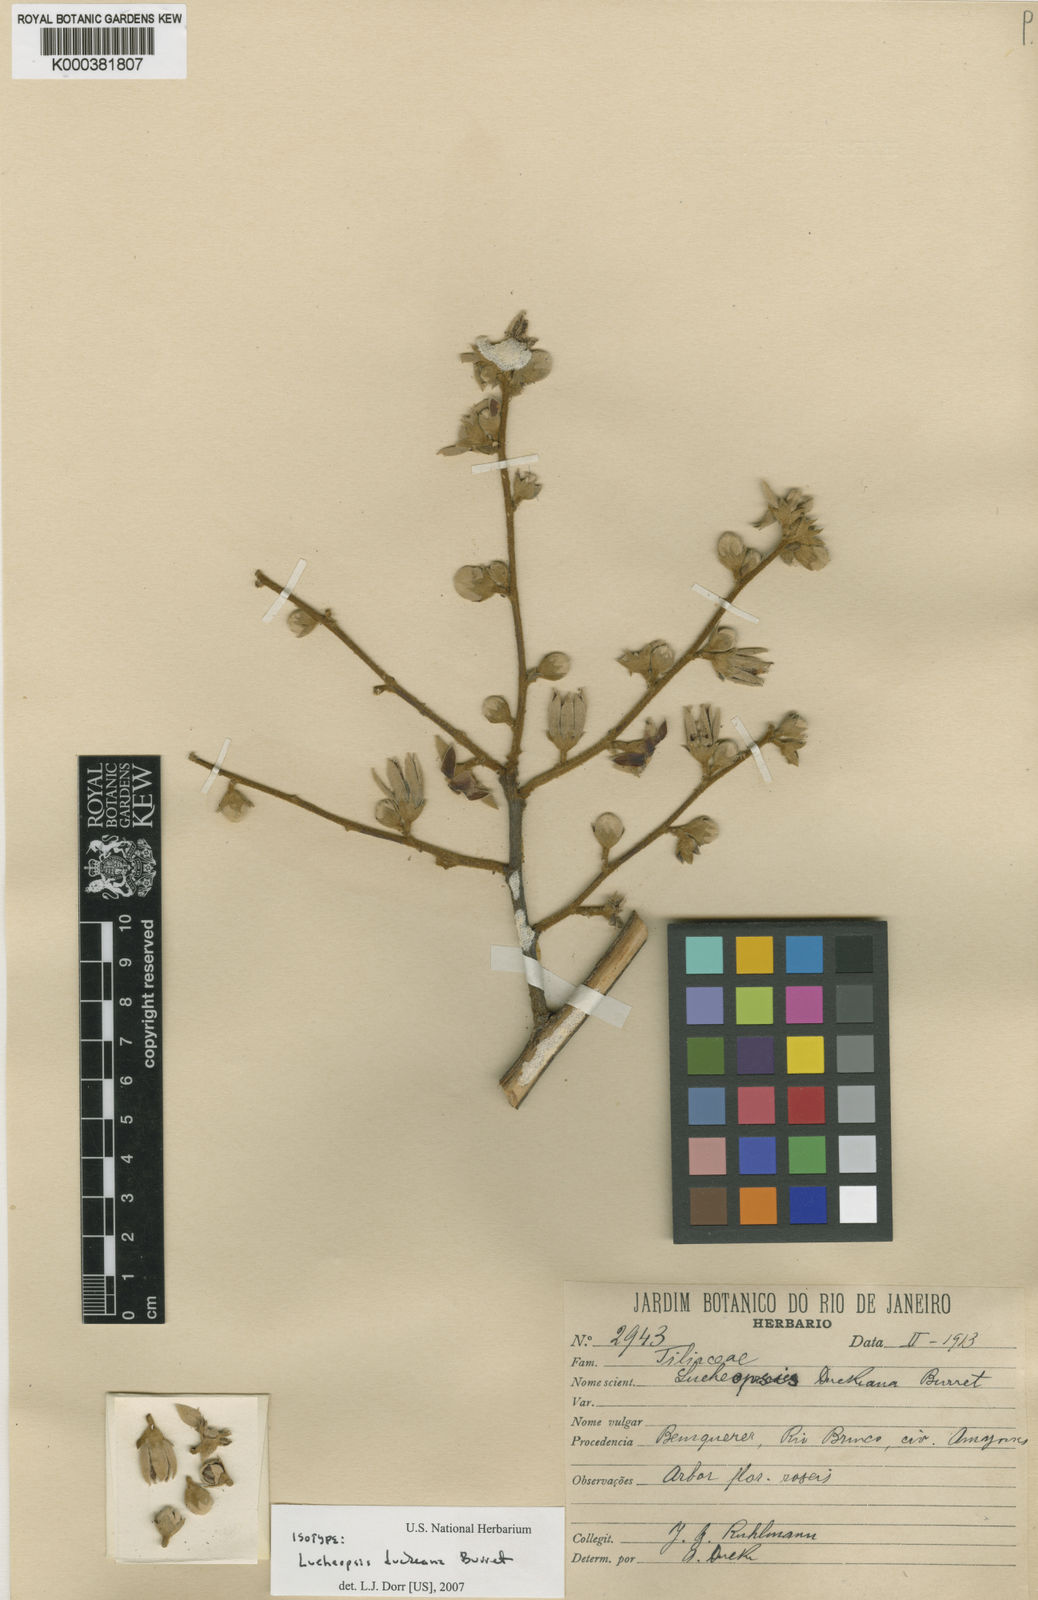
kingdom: Plantae
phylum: Tracheophyta
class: Magnoliopsida
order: Malvales
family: Malvaceae
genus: Lueheopsis
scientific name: Lueheopsis duckeana
